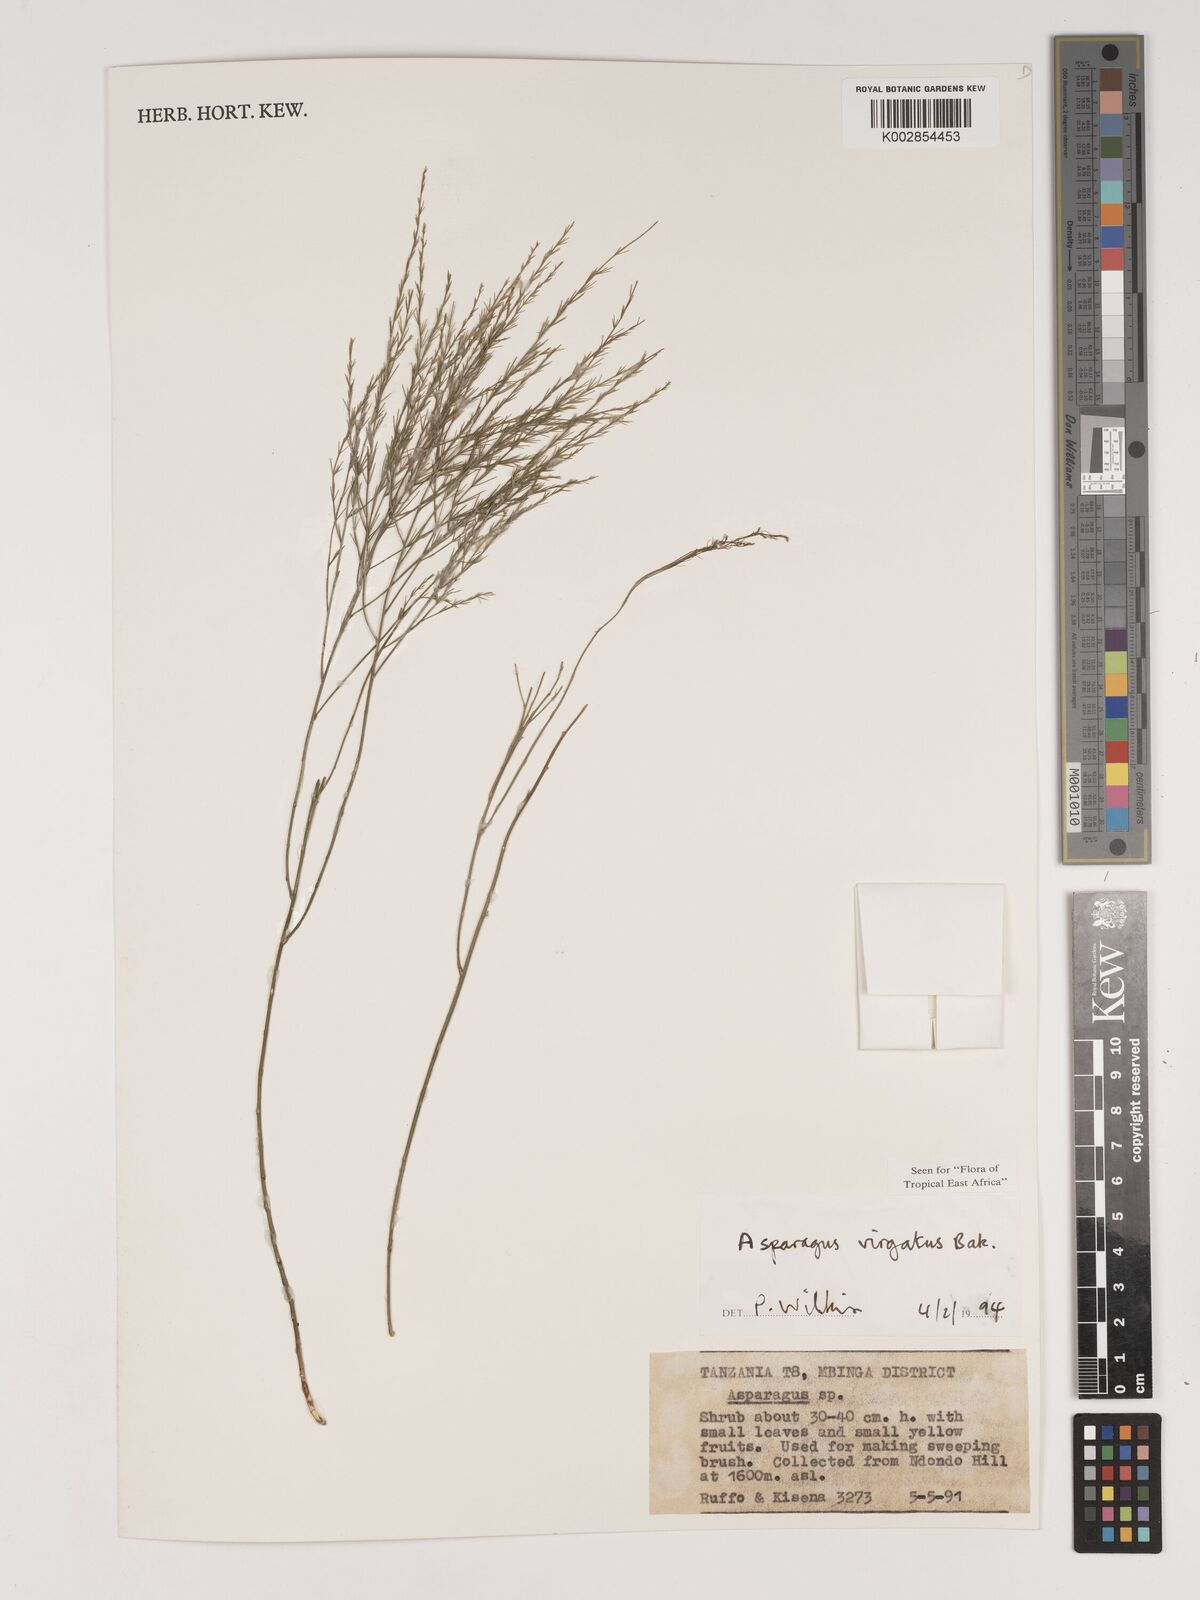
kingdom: Plantae
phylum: Tracheophyta
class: Liliopsida
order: Asparagales
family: Asparagaceae
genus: Asparagus
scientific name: Asparagus virgatus
